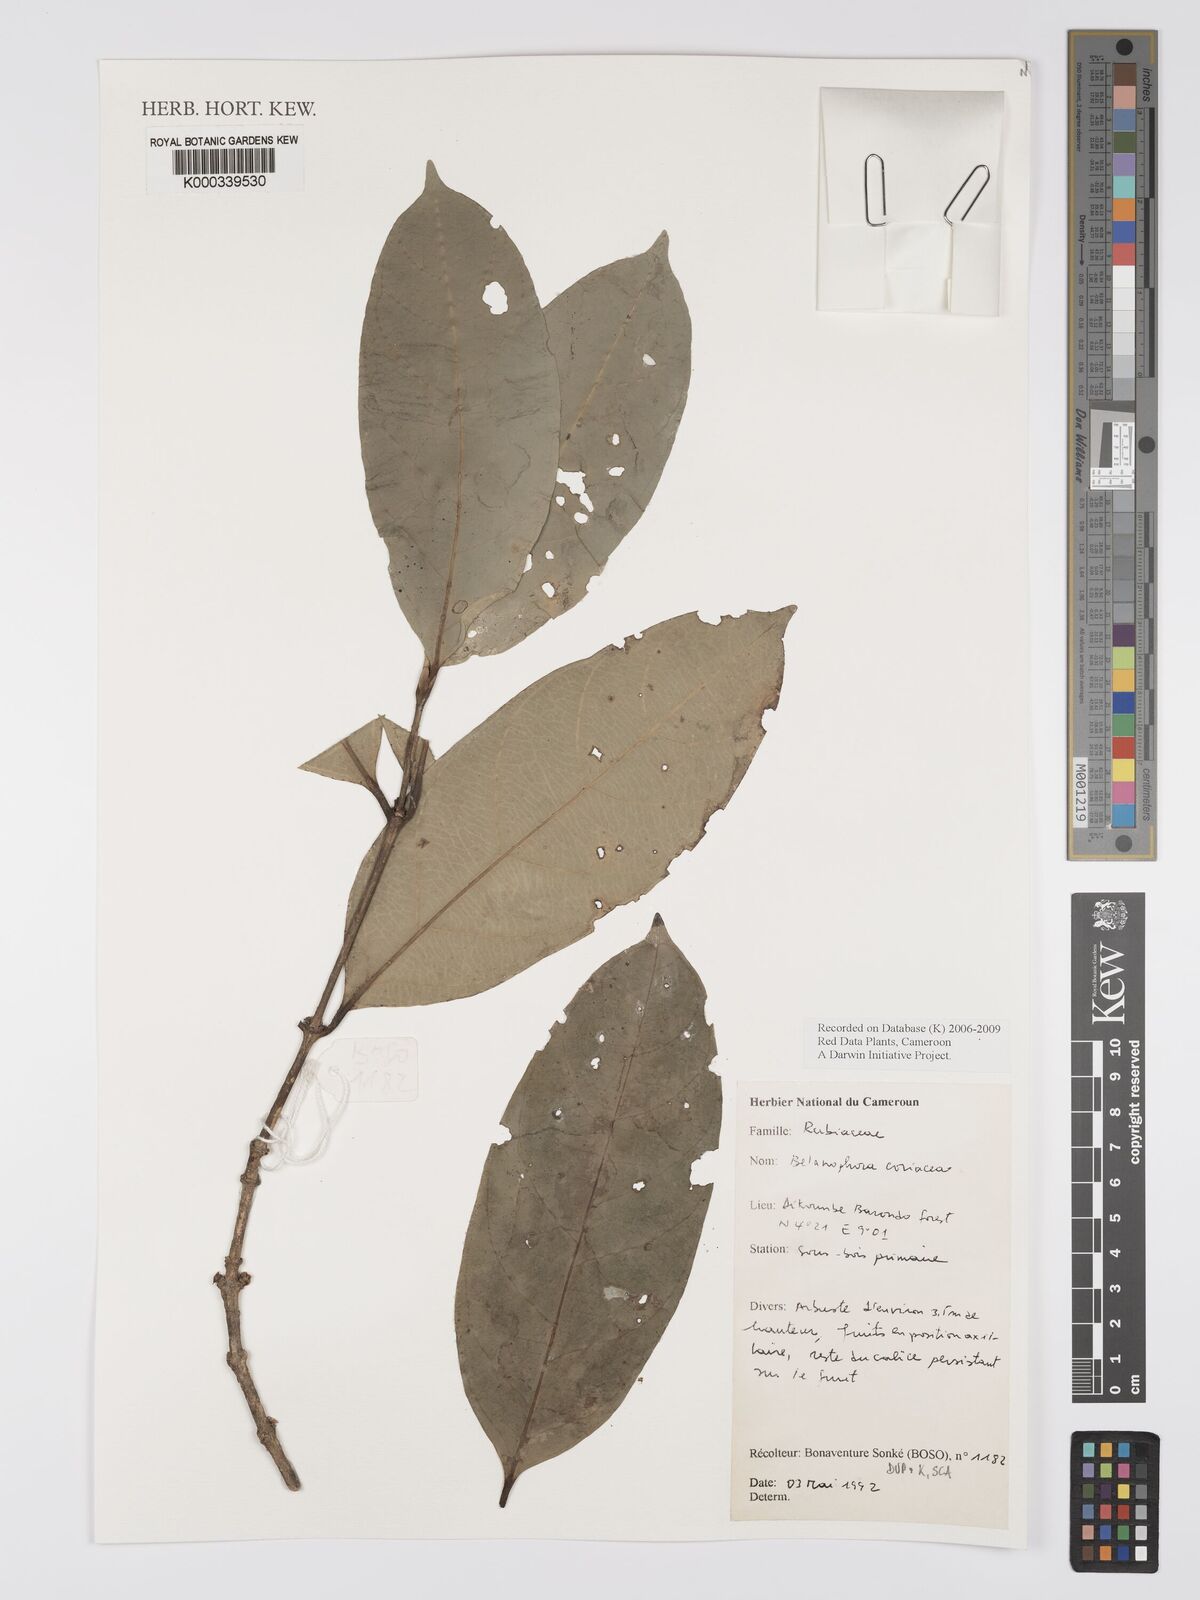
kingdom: Plantae
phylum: Tracheophyta
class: Magnoliopsida
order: Gentianales
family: Rubiaceae
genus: Belonophora
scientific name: Belonophora coriacea
